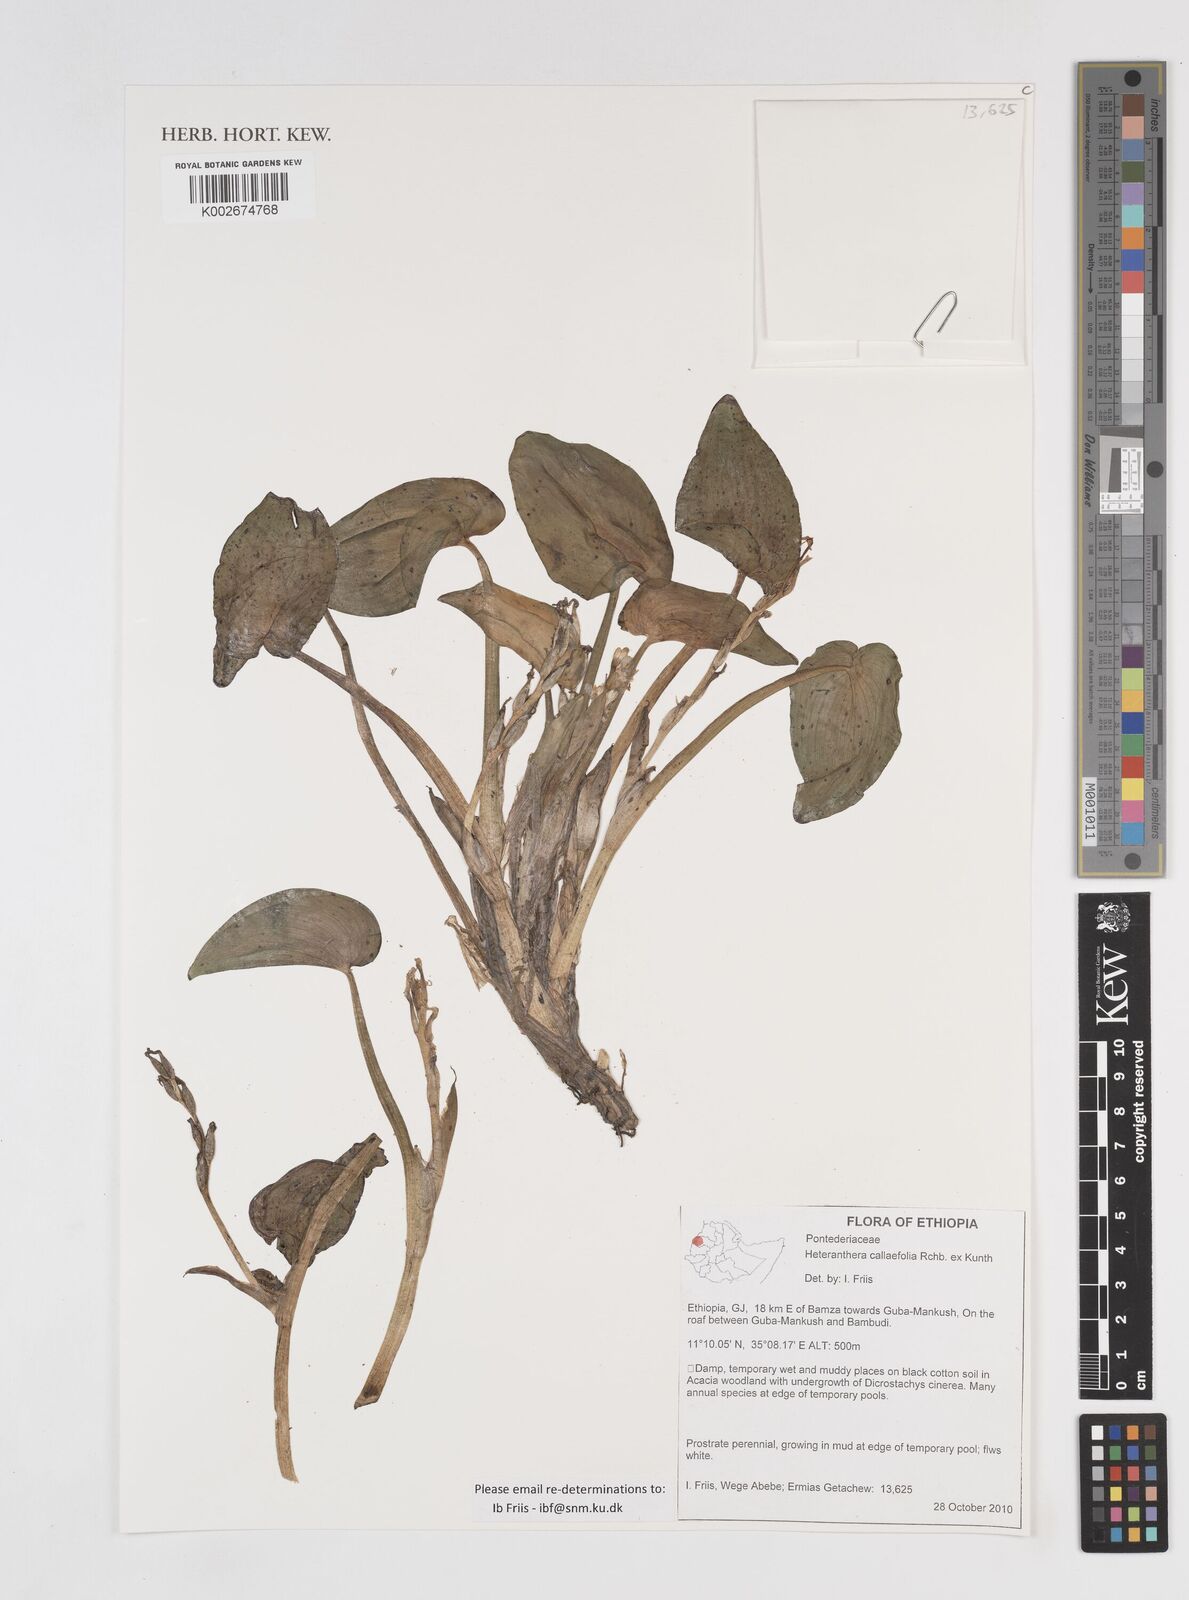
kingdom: Plantae
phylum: Tracheophyta
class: Liliopsida
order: Commelinales
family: Pontederiaceae
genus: Heteranthera
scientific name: Heteranthera callifolia
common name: Mud plantain
